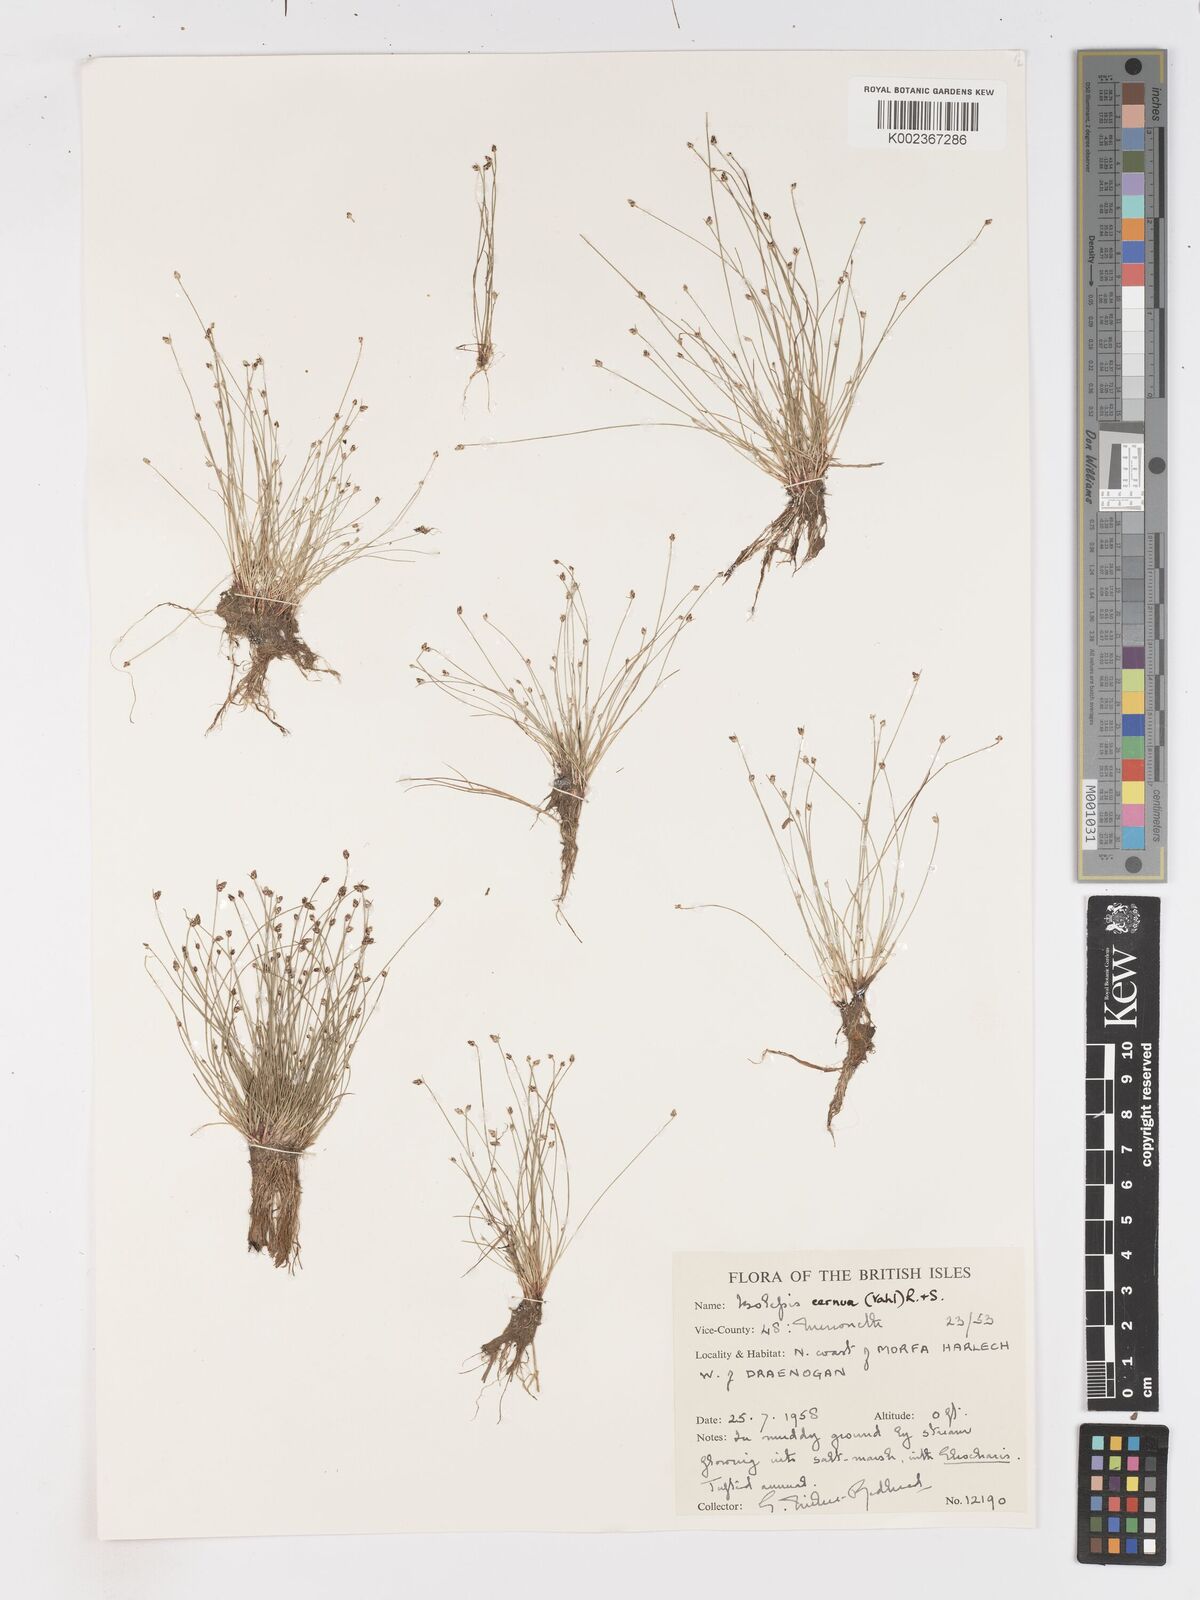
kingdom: Plantae
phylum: Tracheophyta
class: Liliopsida
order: Poales
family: Cyperaceae
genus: Isolepis
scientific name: Isolepis cernua
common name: Slender club-rush
